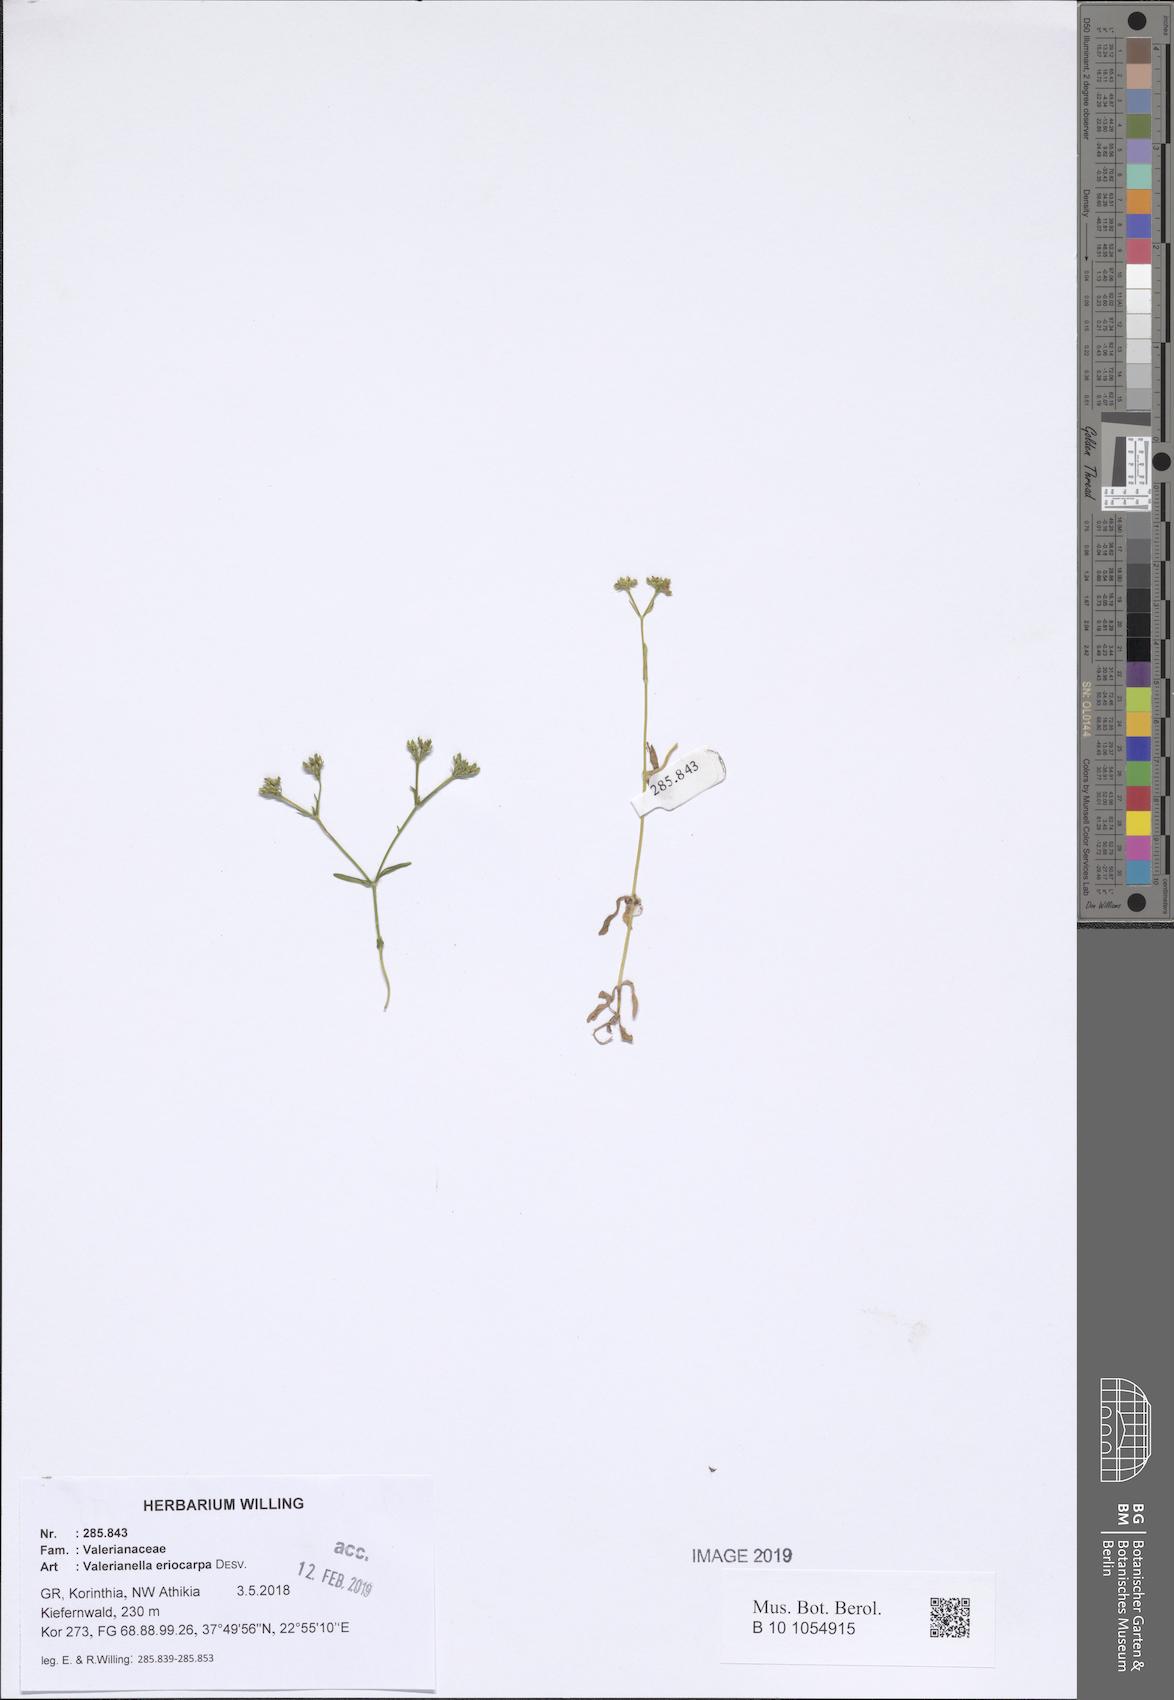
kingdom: Plantae
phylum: Tracheophyta
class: Magnoliopsida
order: Dipsacales
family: Caprifoliaceae
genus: Valerianella
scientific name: Valerianella eriocarpa
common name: Hairy-fruited cornsalad
